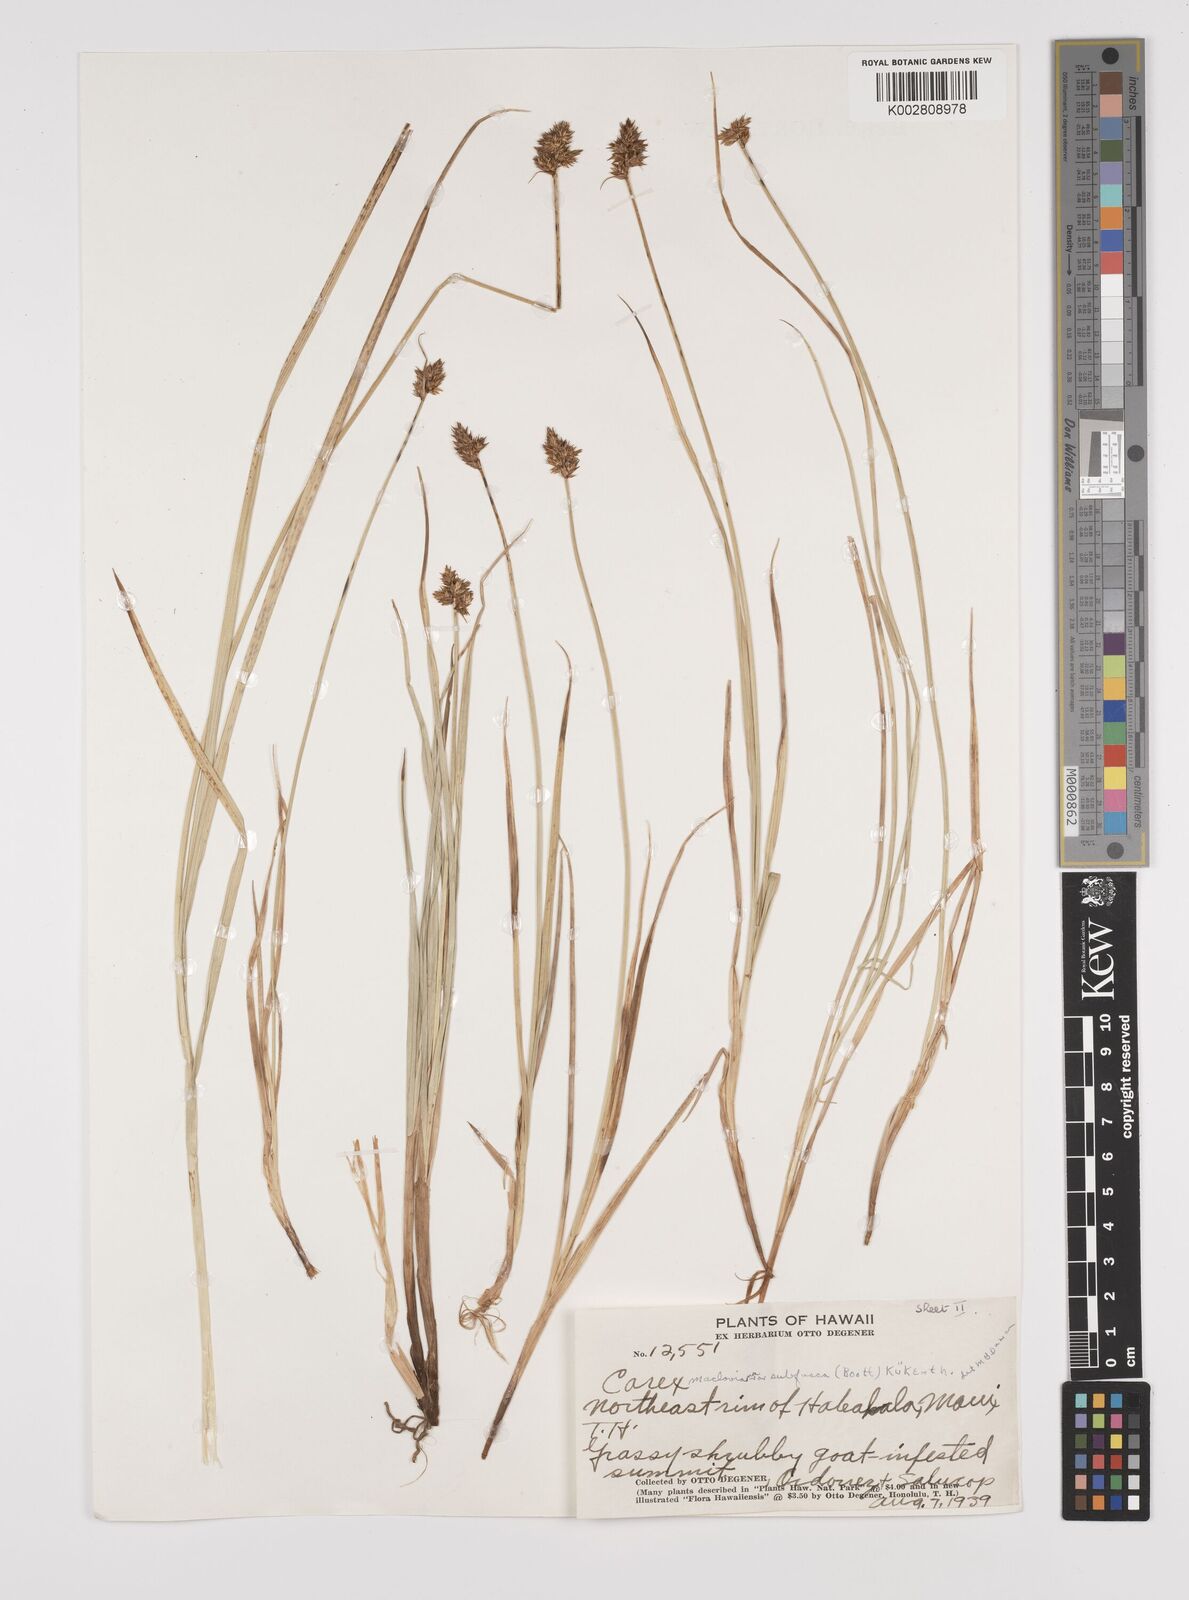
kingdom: Plantae
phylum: Tracheophyta
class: Liliopsida
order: Poales
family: Cyperaceae
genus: Carex
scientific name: Carex subfusca
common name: Brown sedge
